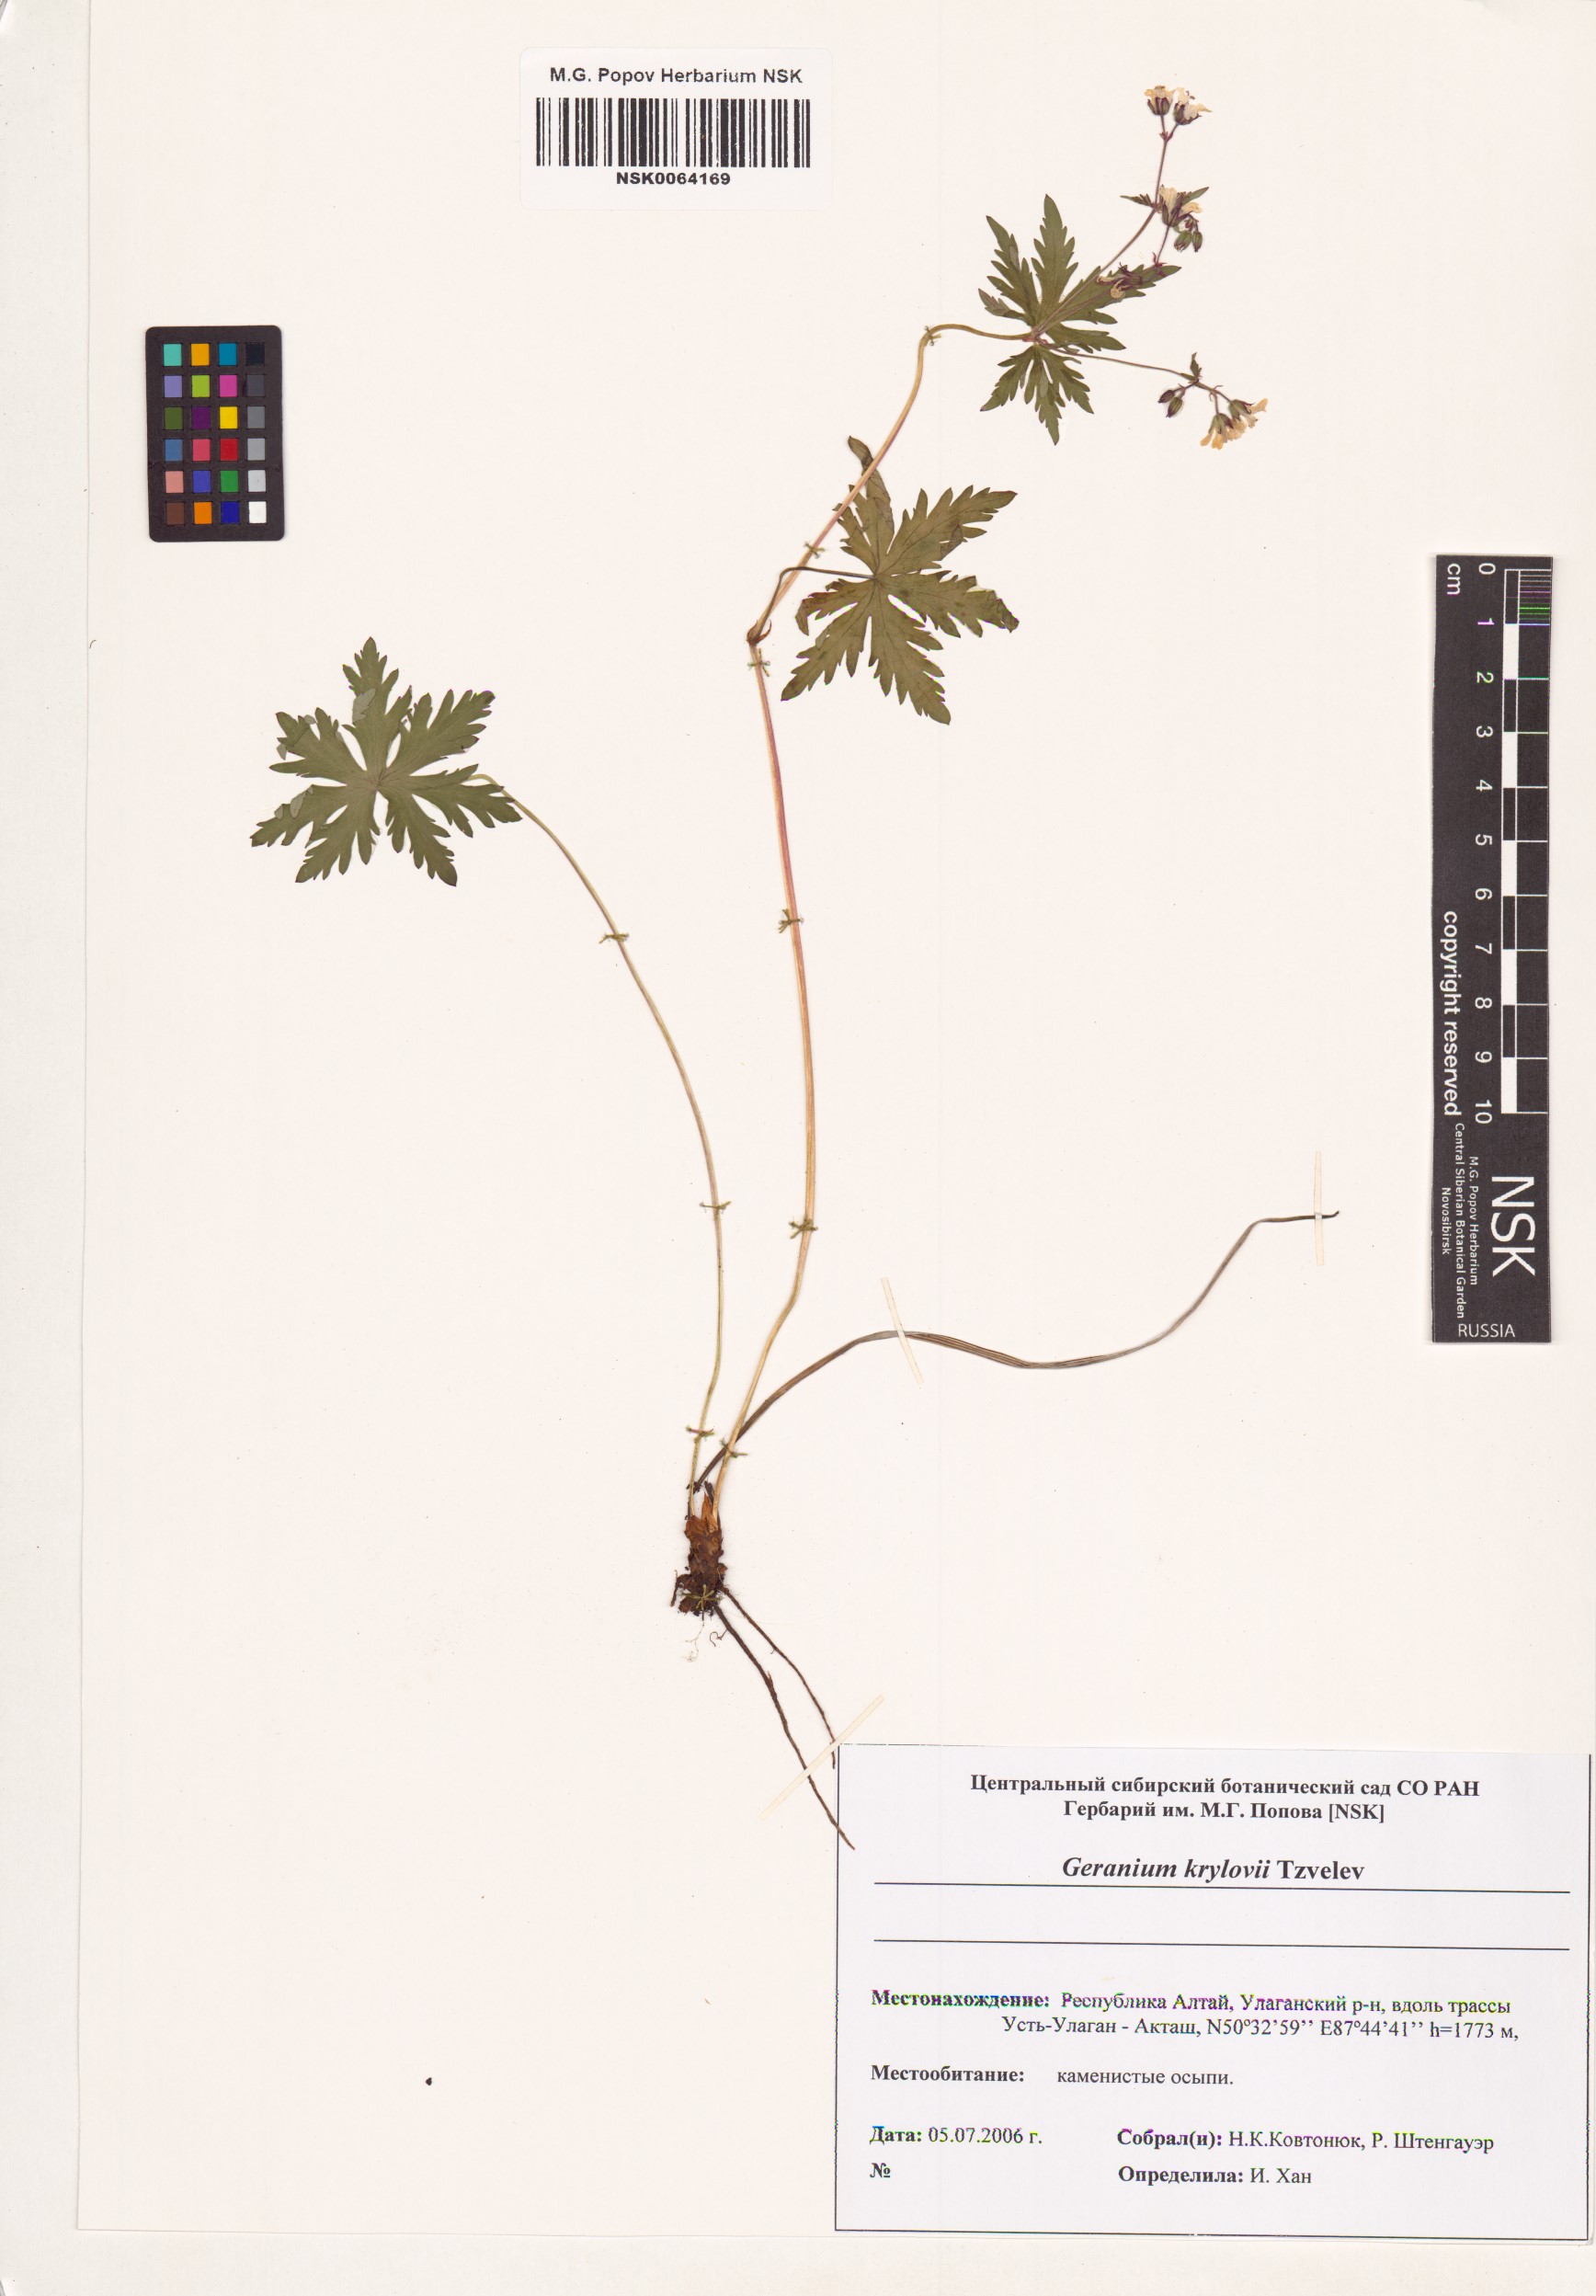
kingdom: Plantae
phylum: Tracheophyta
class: Magnoliopsida
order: Geraniales
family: Geraniaceae
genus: Geranium
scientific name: Geranium sylvaticum
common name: Wood crane's-bill
